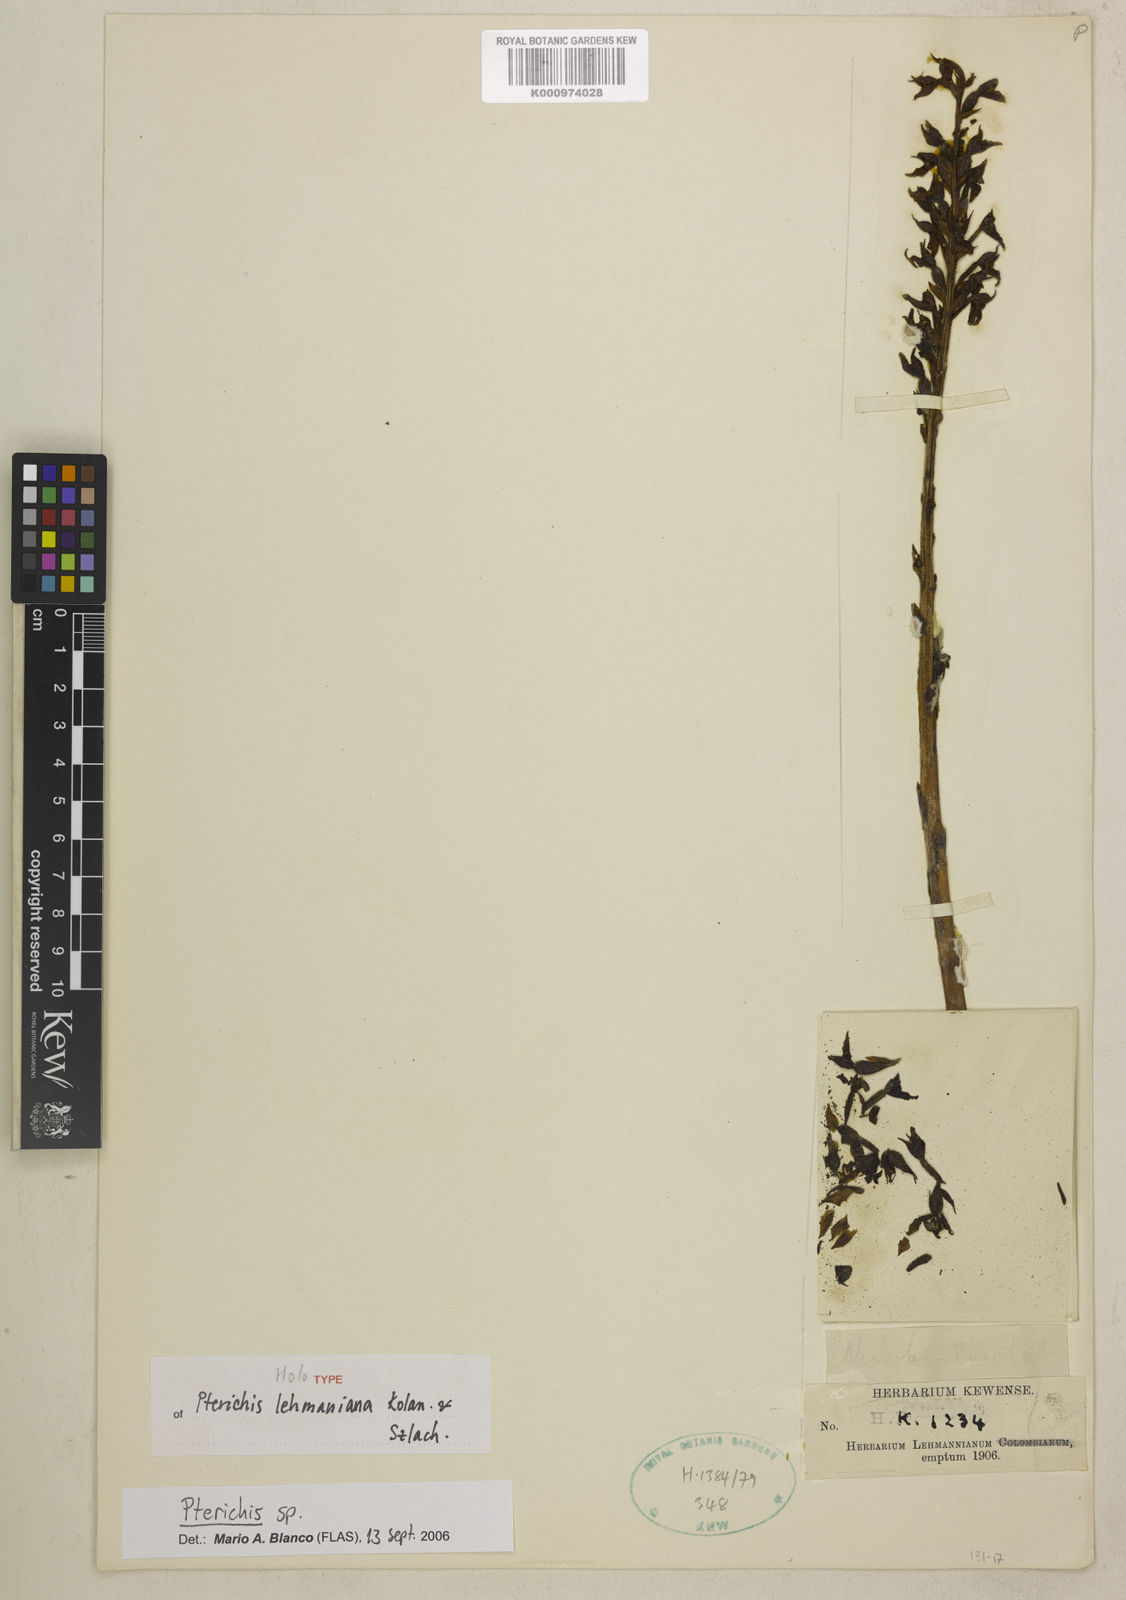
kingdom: Plantae
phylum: Tracheophyta
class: Liliopsida
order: Asparagales
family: Orchidaceae
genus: Pterichis
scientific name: Pterichis lehmanniana
